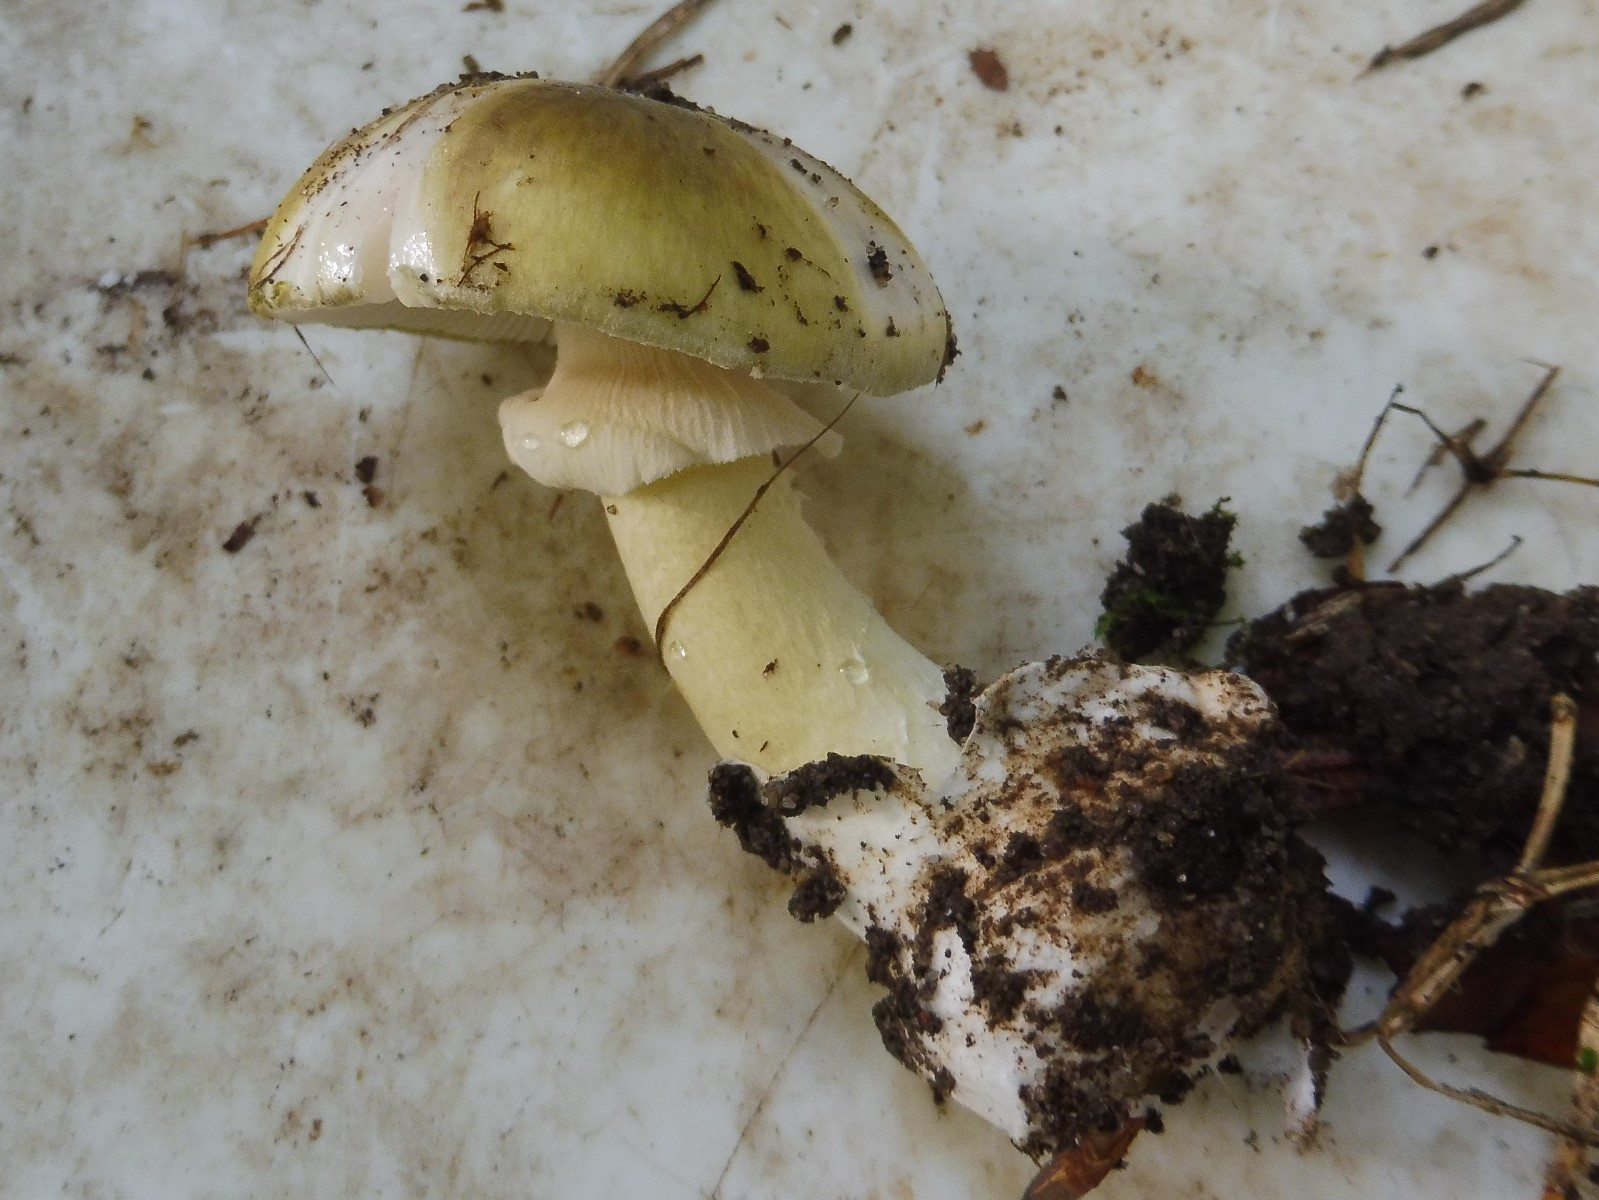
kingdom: Fungi
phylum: Basidiomycota
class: Agaricomycetes
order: Agaricales
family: Amanitaceae
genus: Amanita
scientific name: Amanita phalloides
